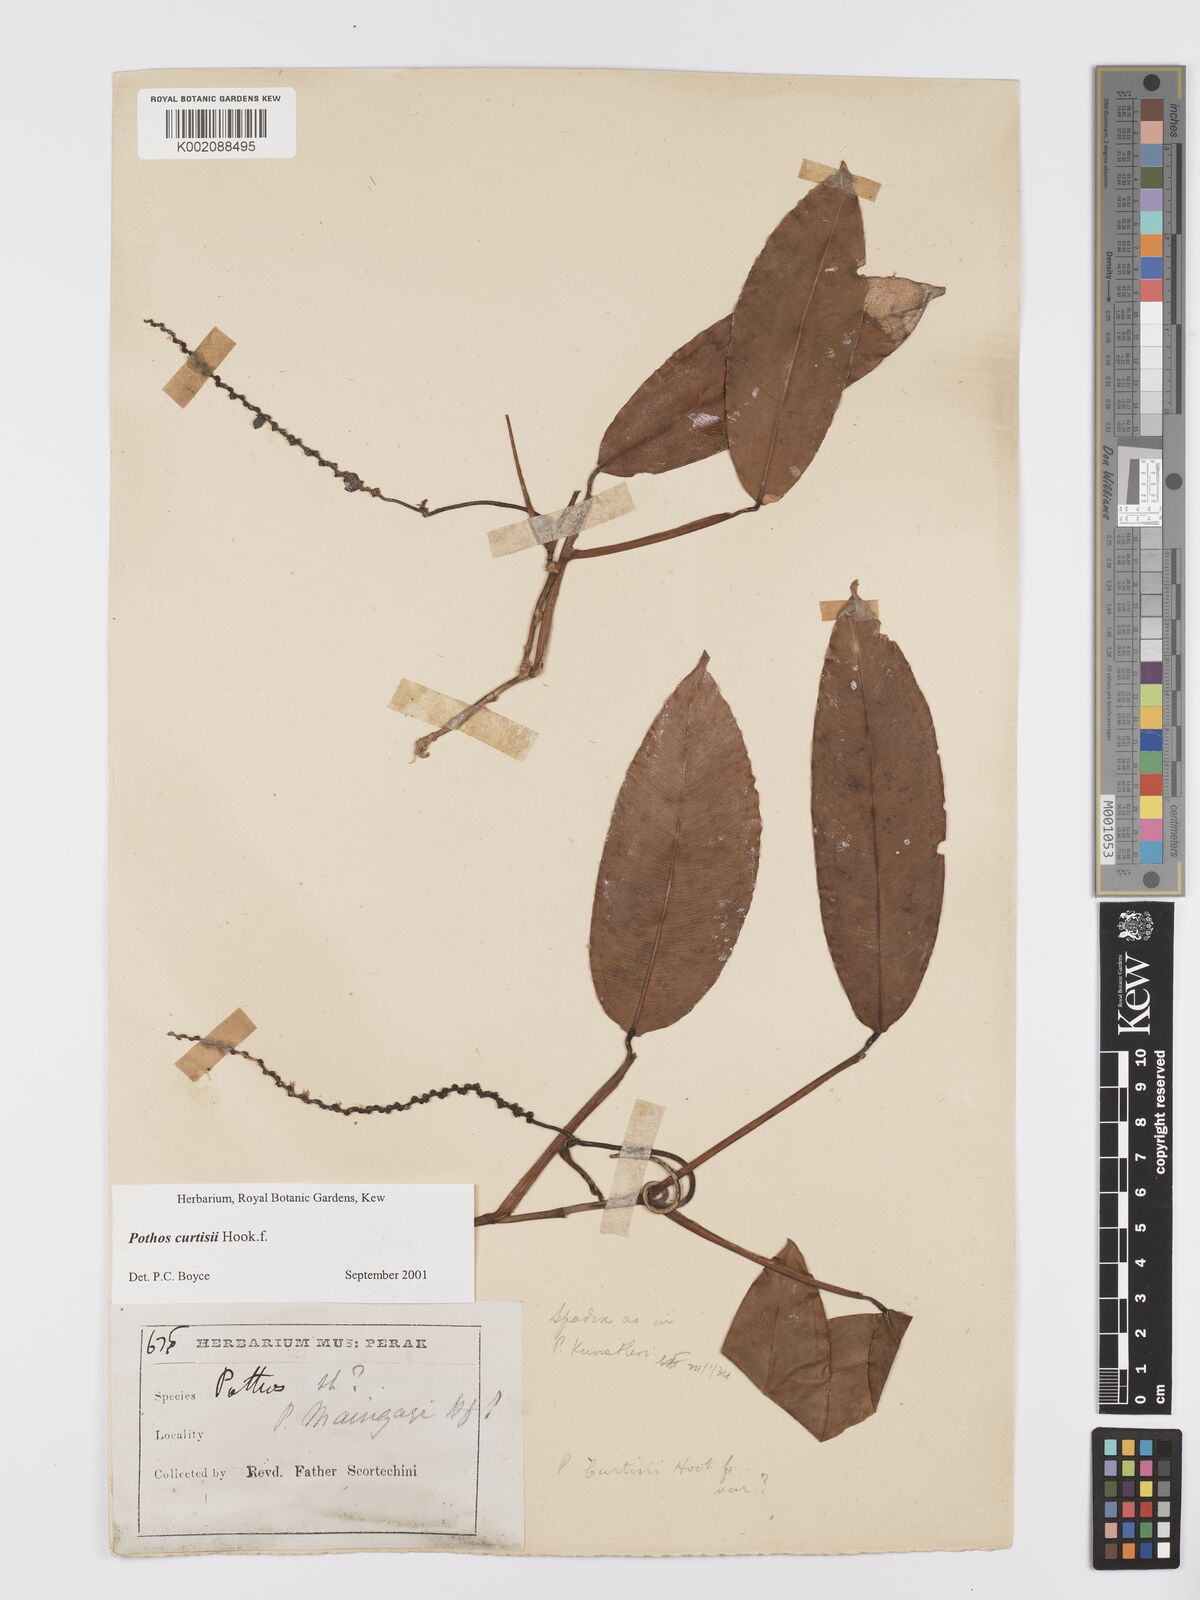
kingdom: Plantae
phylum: Tracheophyta
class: Liliopsida
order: Alismatales
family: Araceae
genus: Pothos
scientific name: Pothos curtisii
